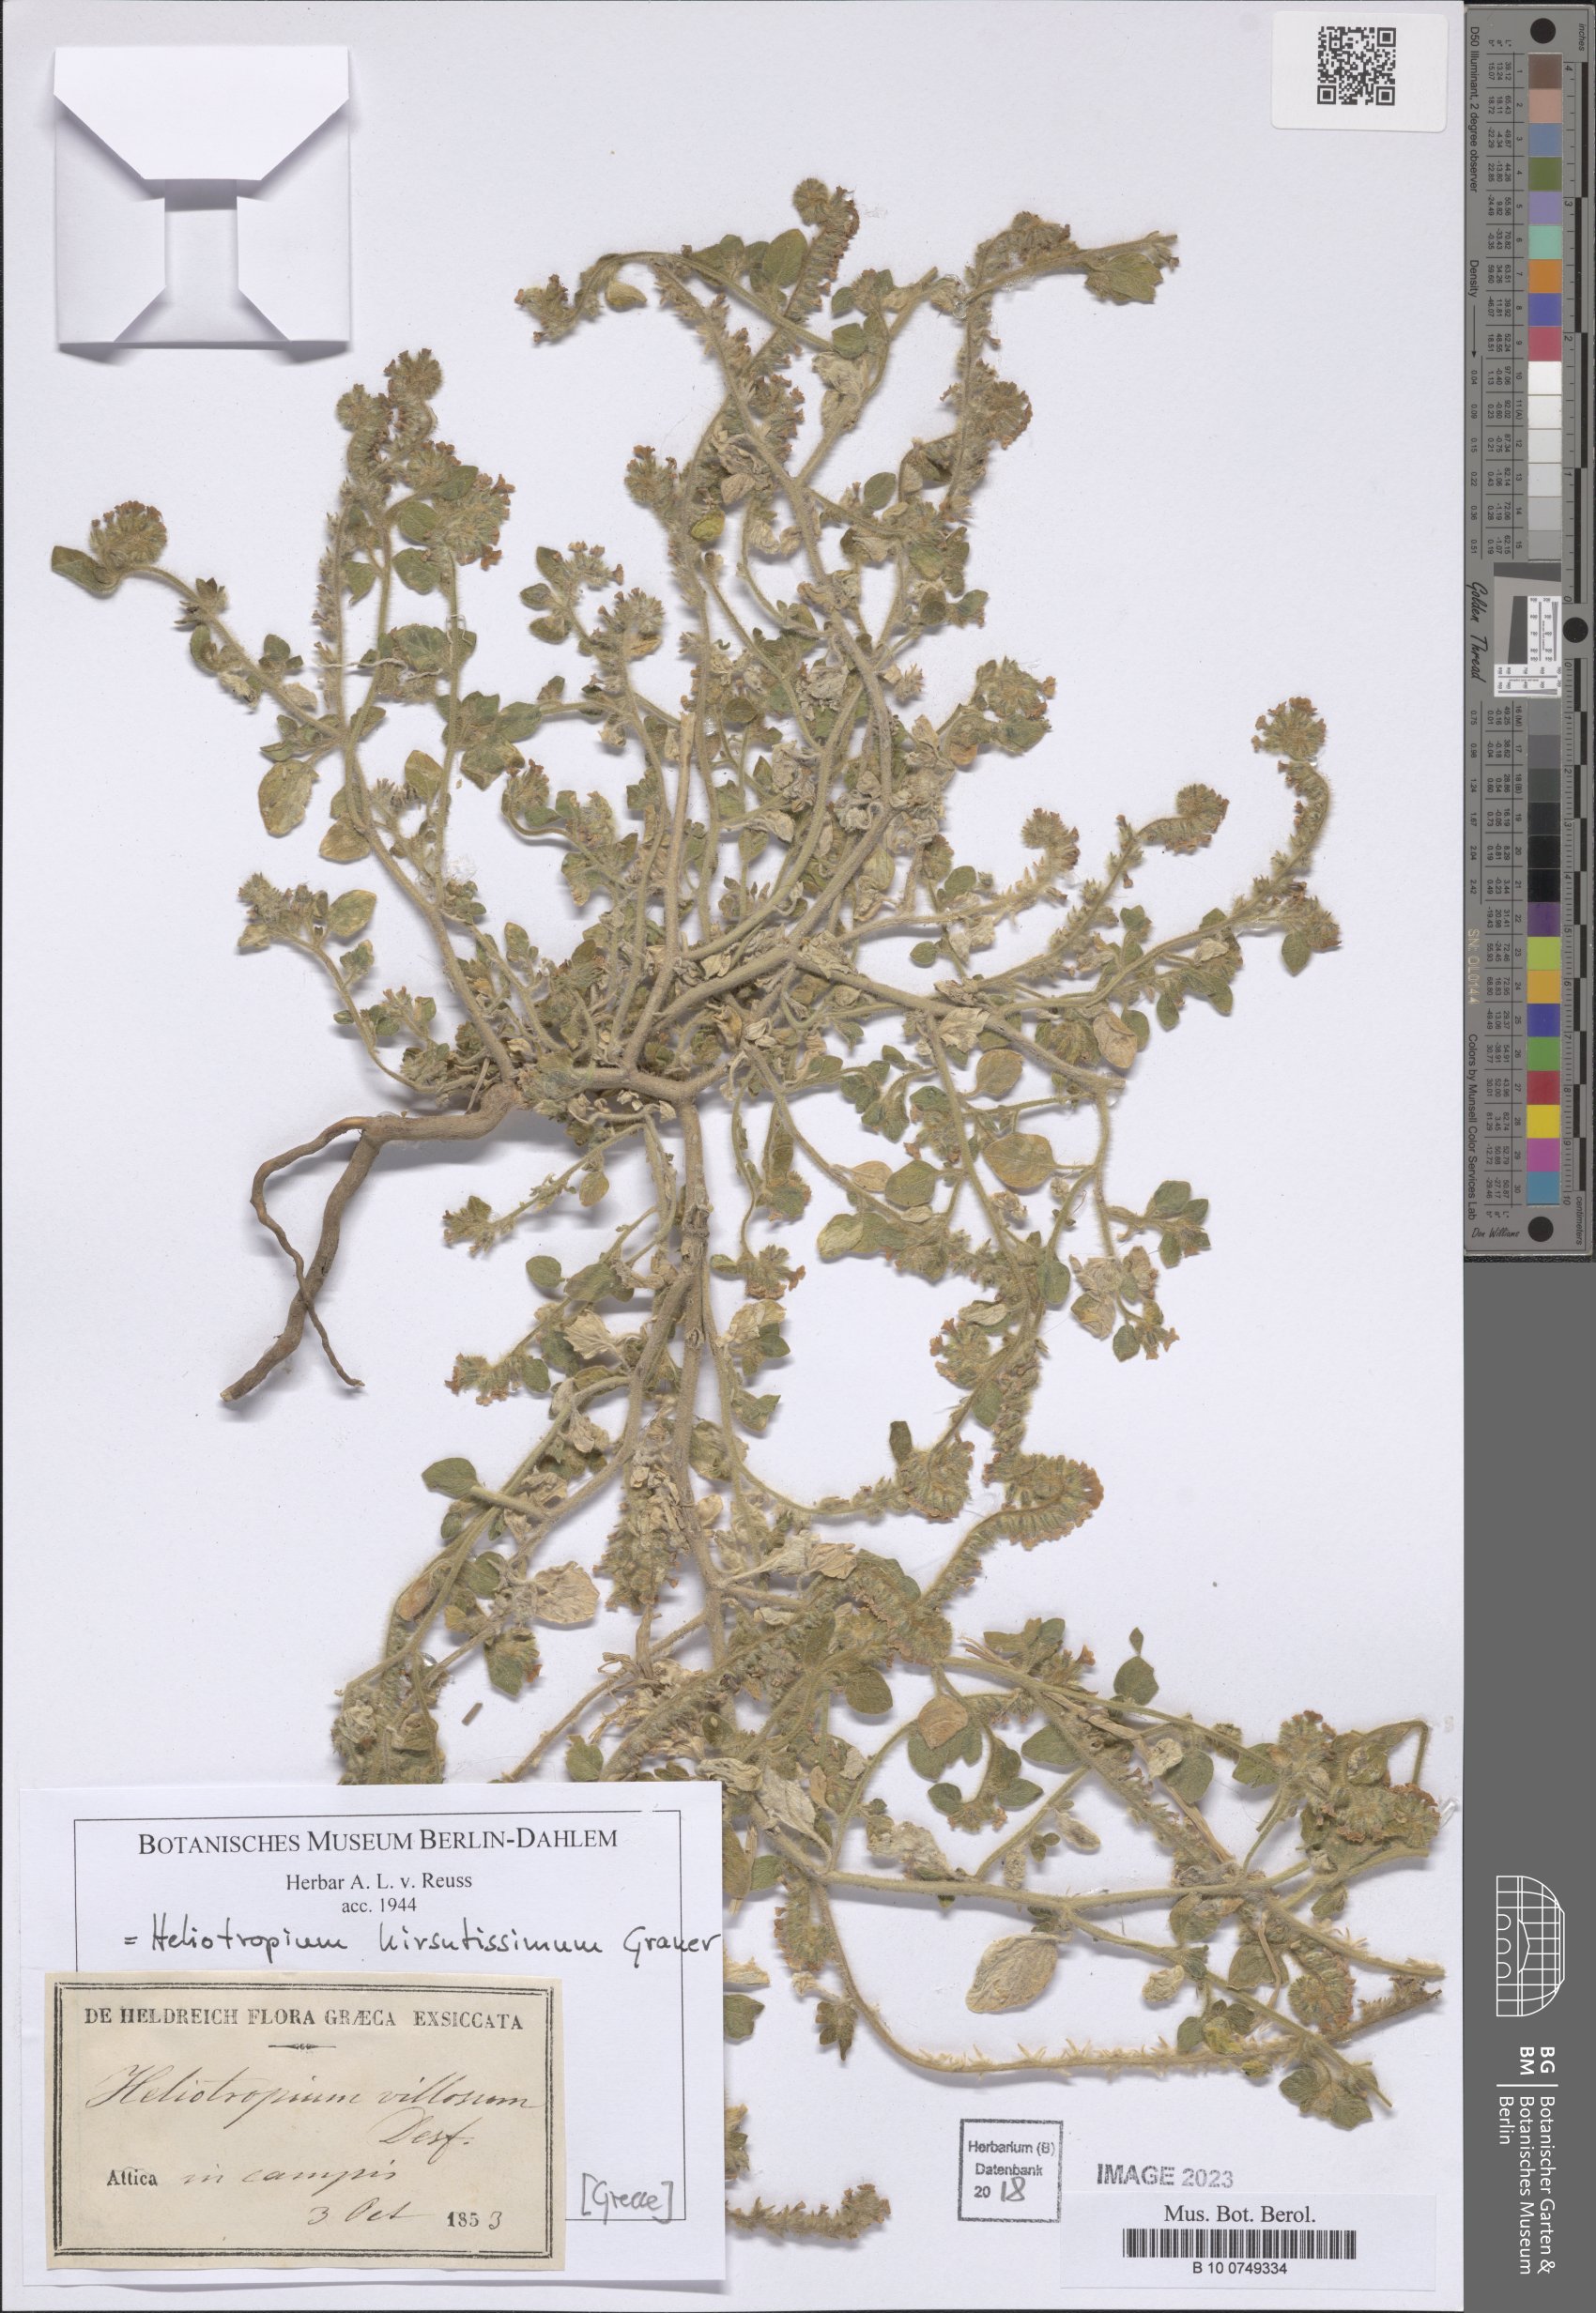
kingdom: Plantae
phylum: Tracheophyta
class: Magnoliopsida
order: Boraginales
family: Heliotropiaceae
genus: Heliotropium
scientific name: Heliotropium hirsutissimum
